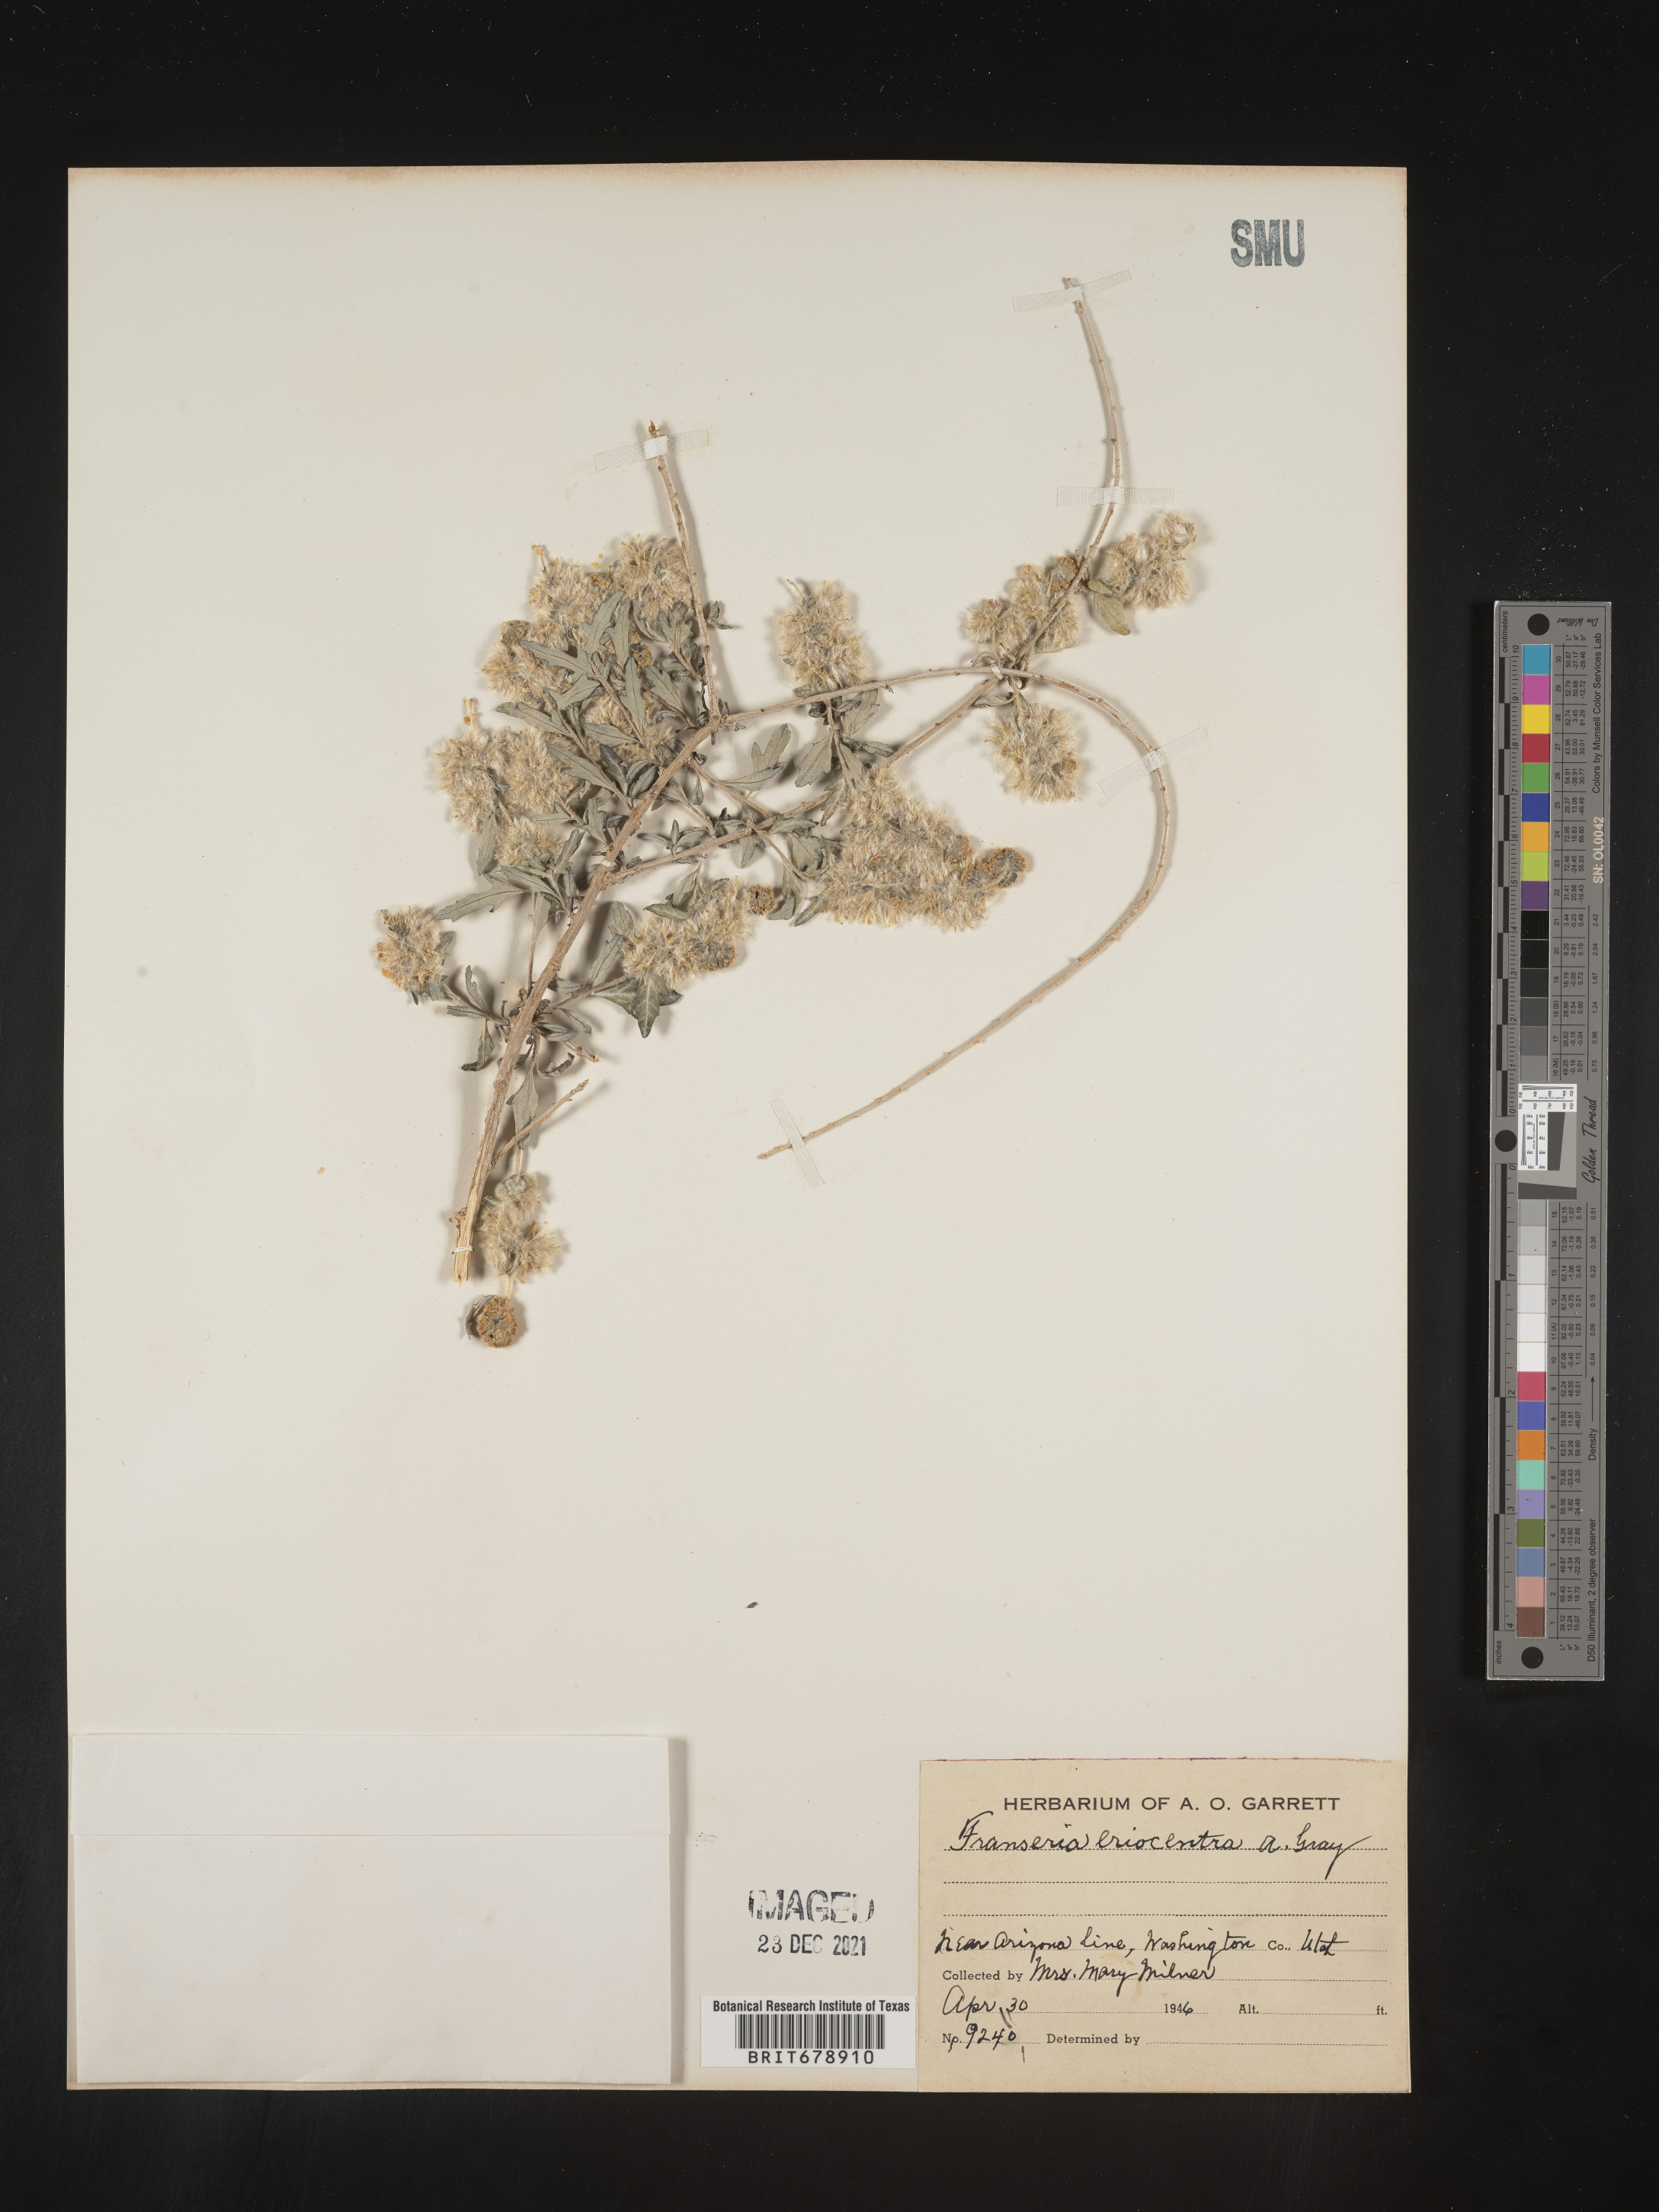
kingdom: Plantae
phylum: Tracheophyta
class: Magnoliopsida
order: Asterales
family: Asteraceae
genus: Ambrosia
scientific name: Ambrosia eriocentra
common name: Woolly bur-sage
